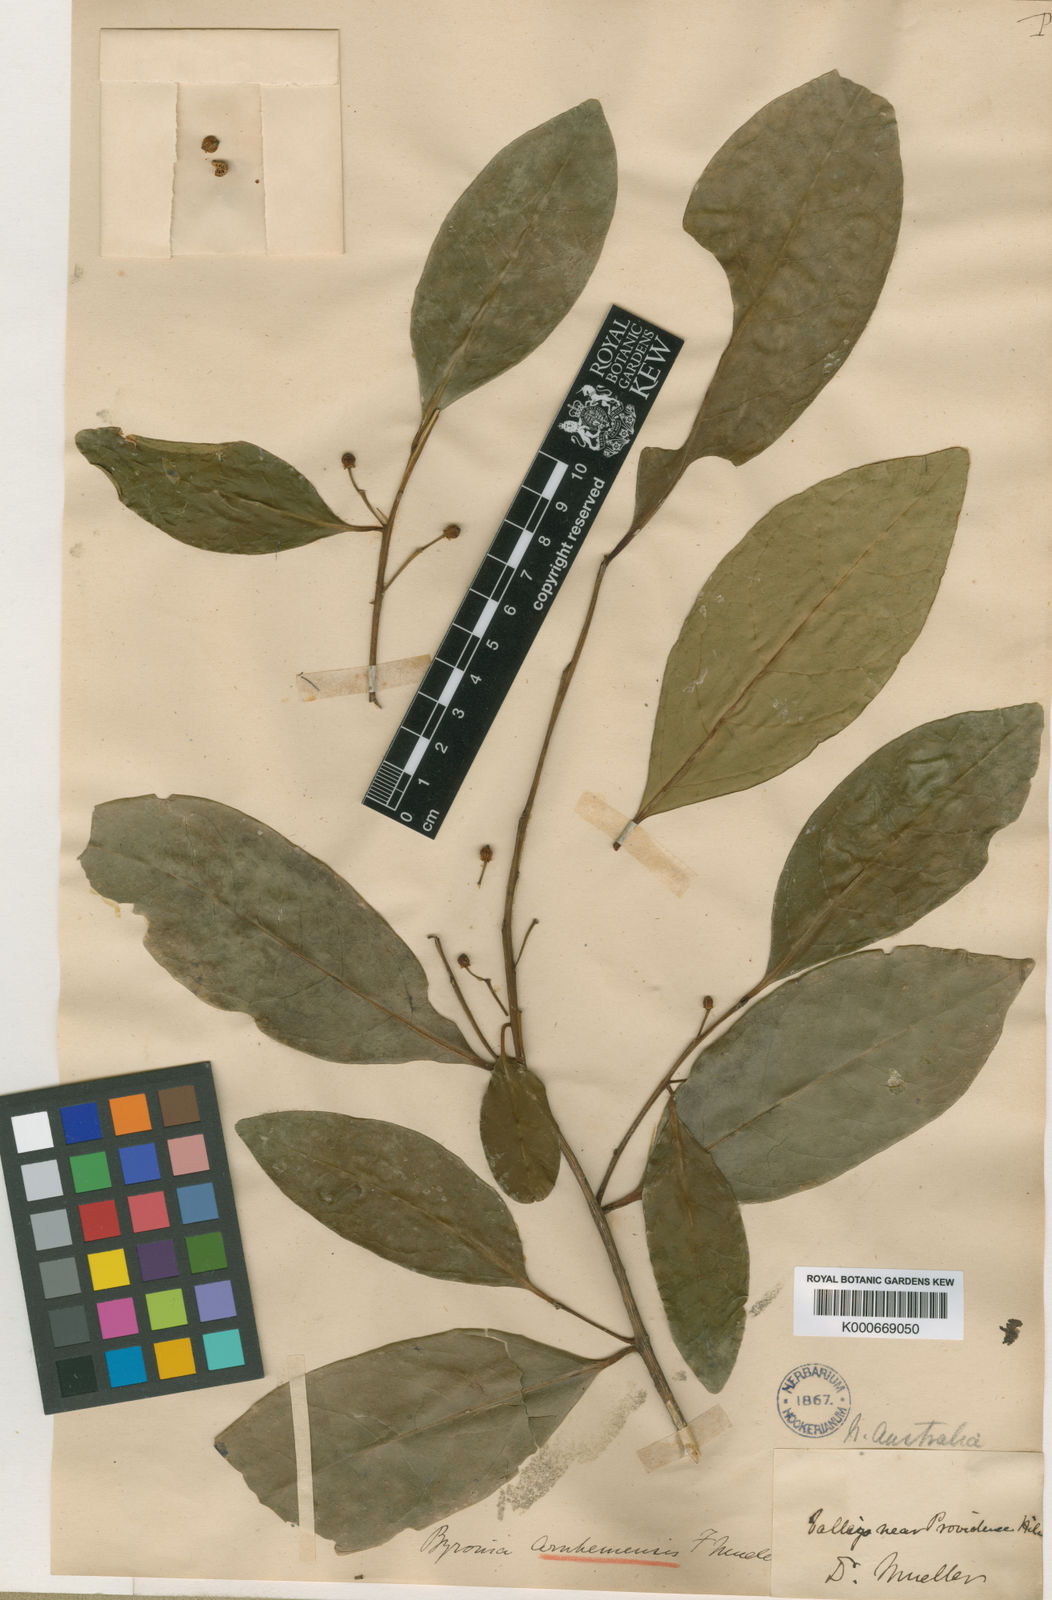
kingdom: Plantae
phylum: Tracheophyta
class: Magnoliopsida
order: Aquifoliales
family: Aquifoliaceae
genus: Ilex
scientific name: Ilex arnhemensis
